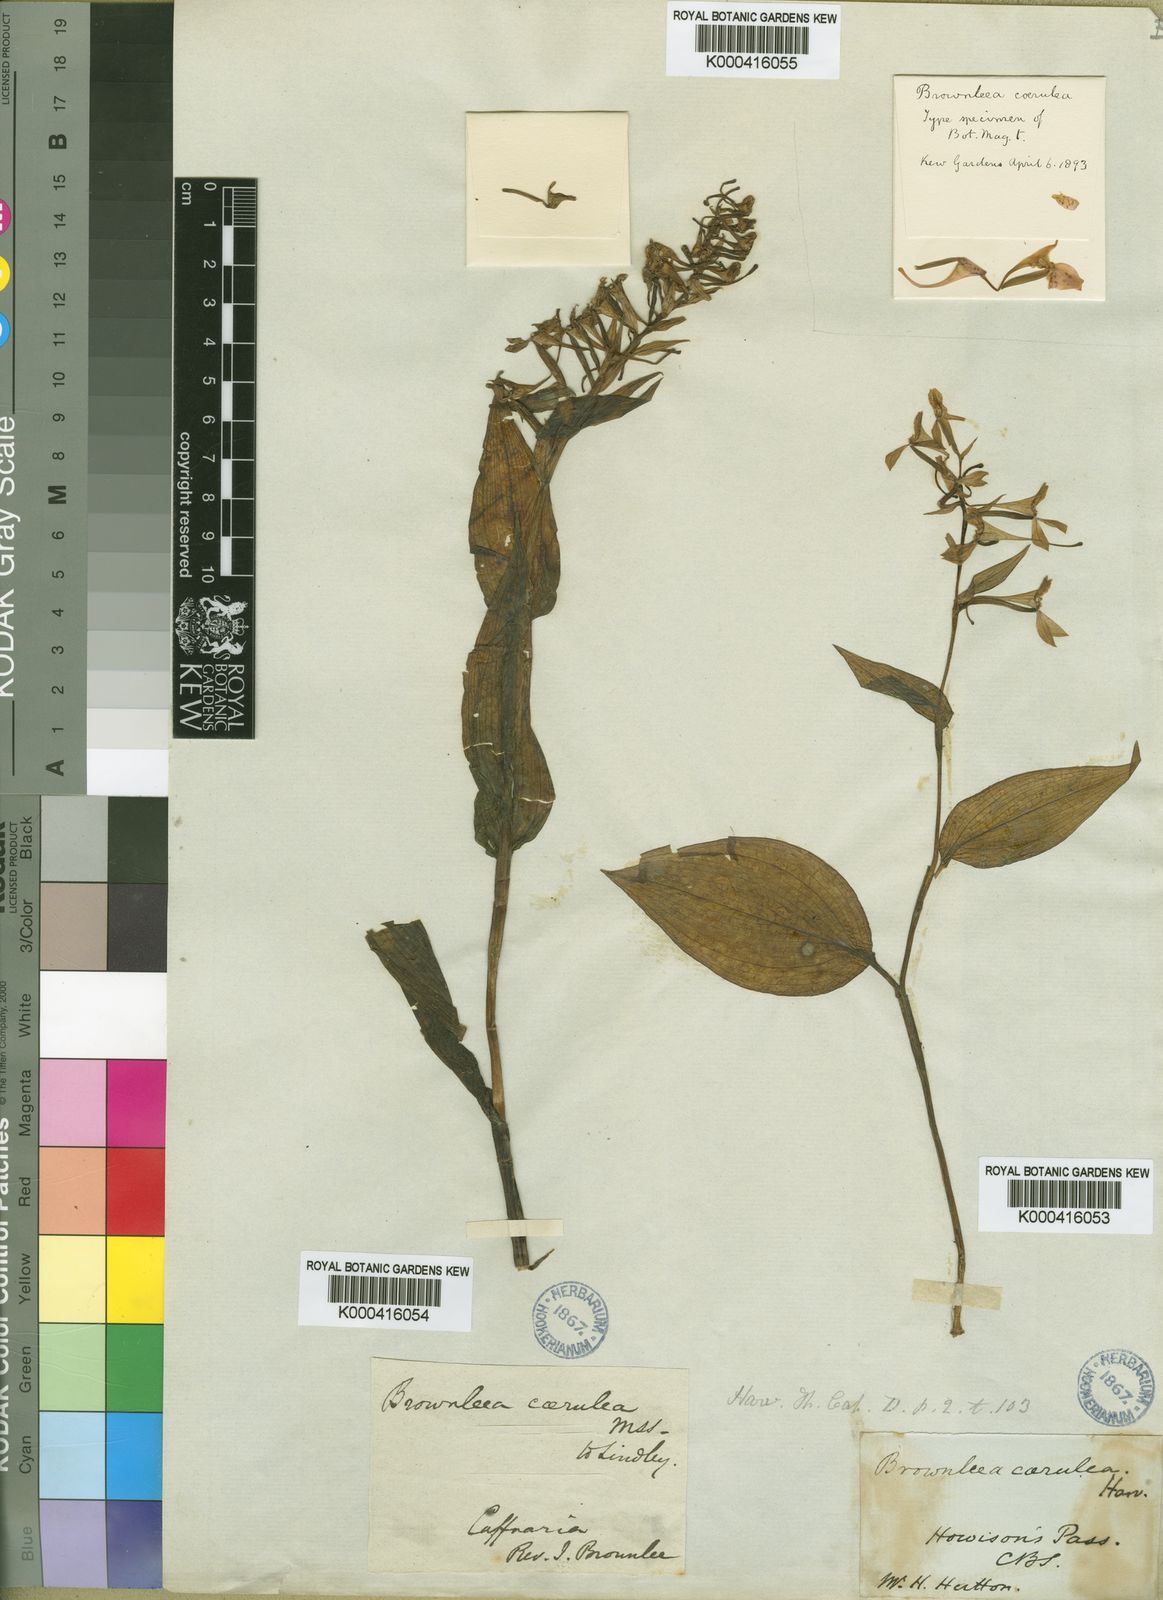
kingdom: Plantae
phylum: Tracheophyta
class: Liliopsida
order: Asparagales
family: Orchidaceae
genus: Brownleea
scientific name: Brownleea
